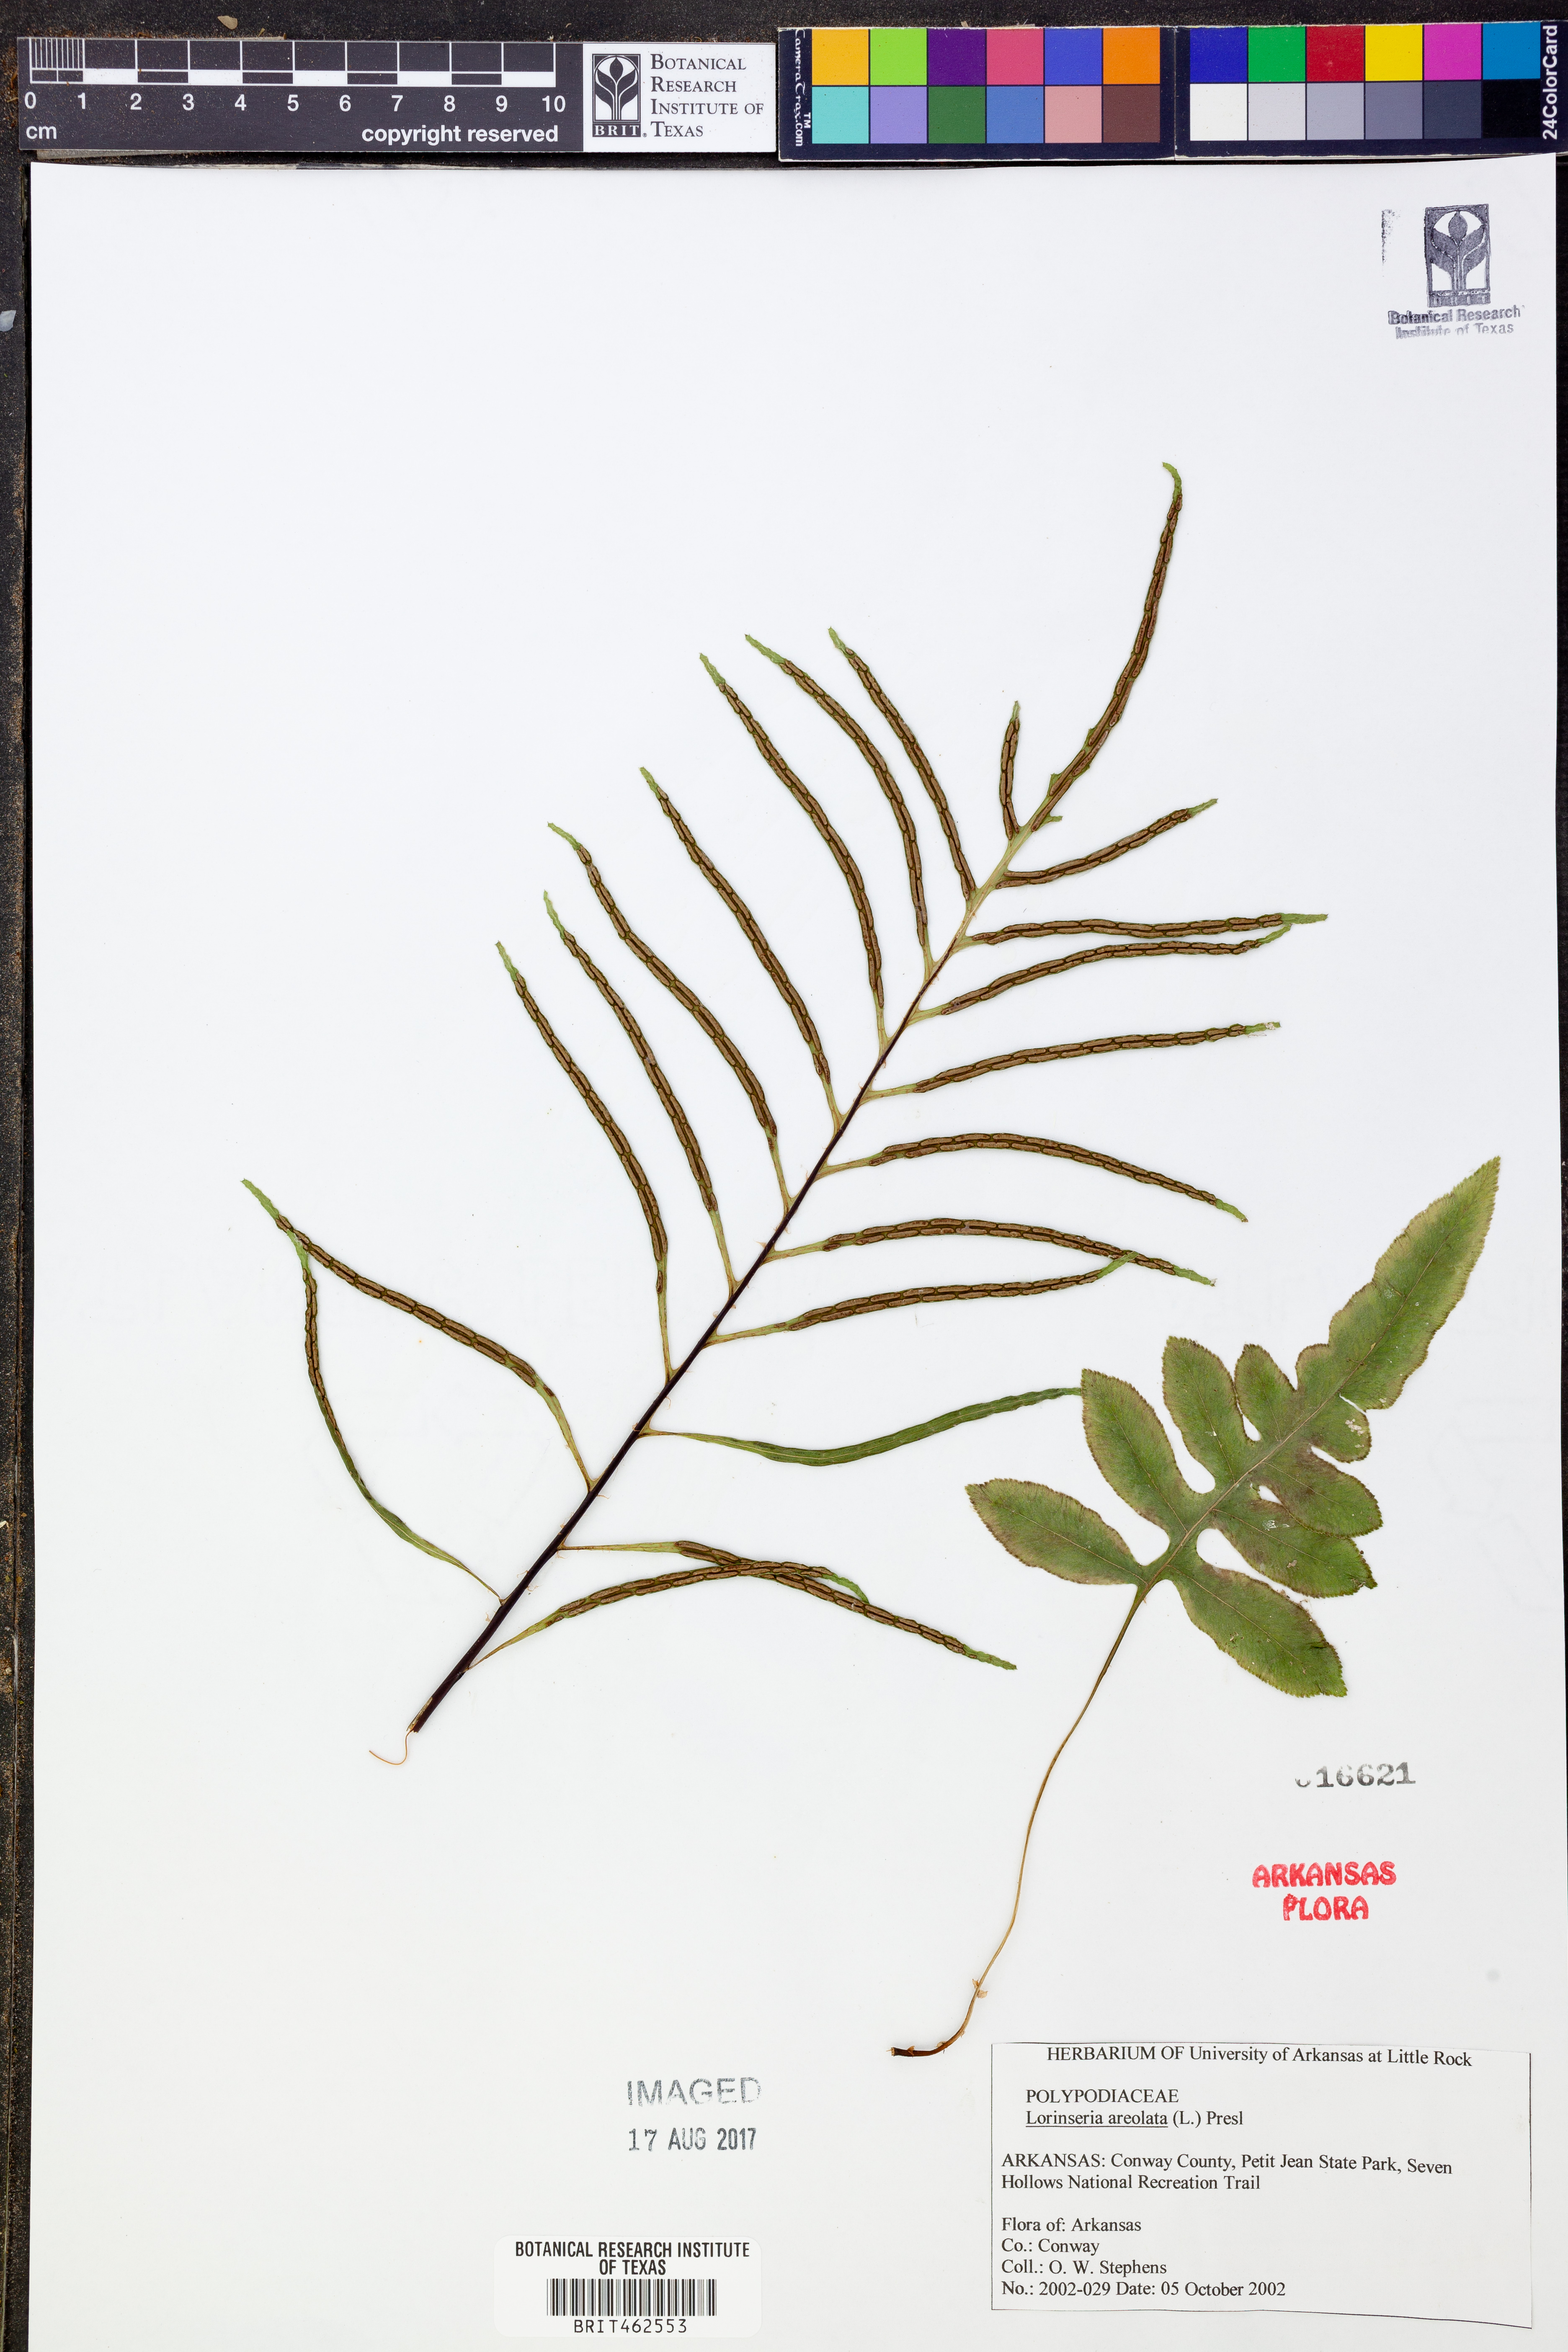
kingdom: Plantae
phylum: Tracheophyta
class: Polypodiopsida
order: Polypodiales
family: Blechnaceae
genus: Lorinseria
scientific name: Lorinseria areolata
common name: Dwarf chain fern
